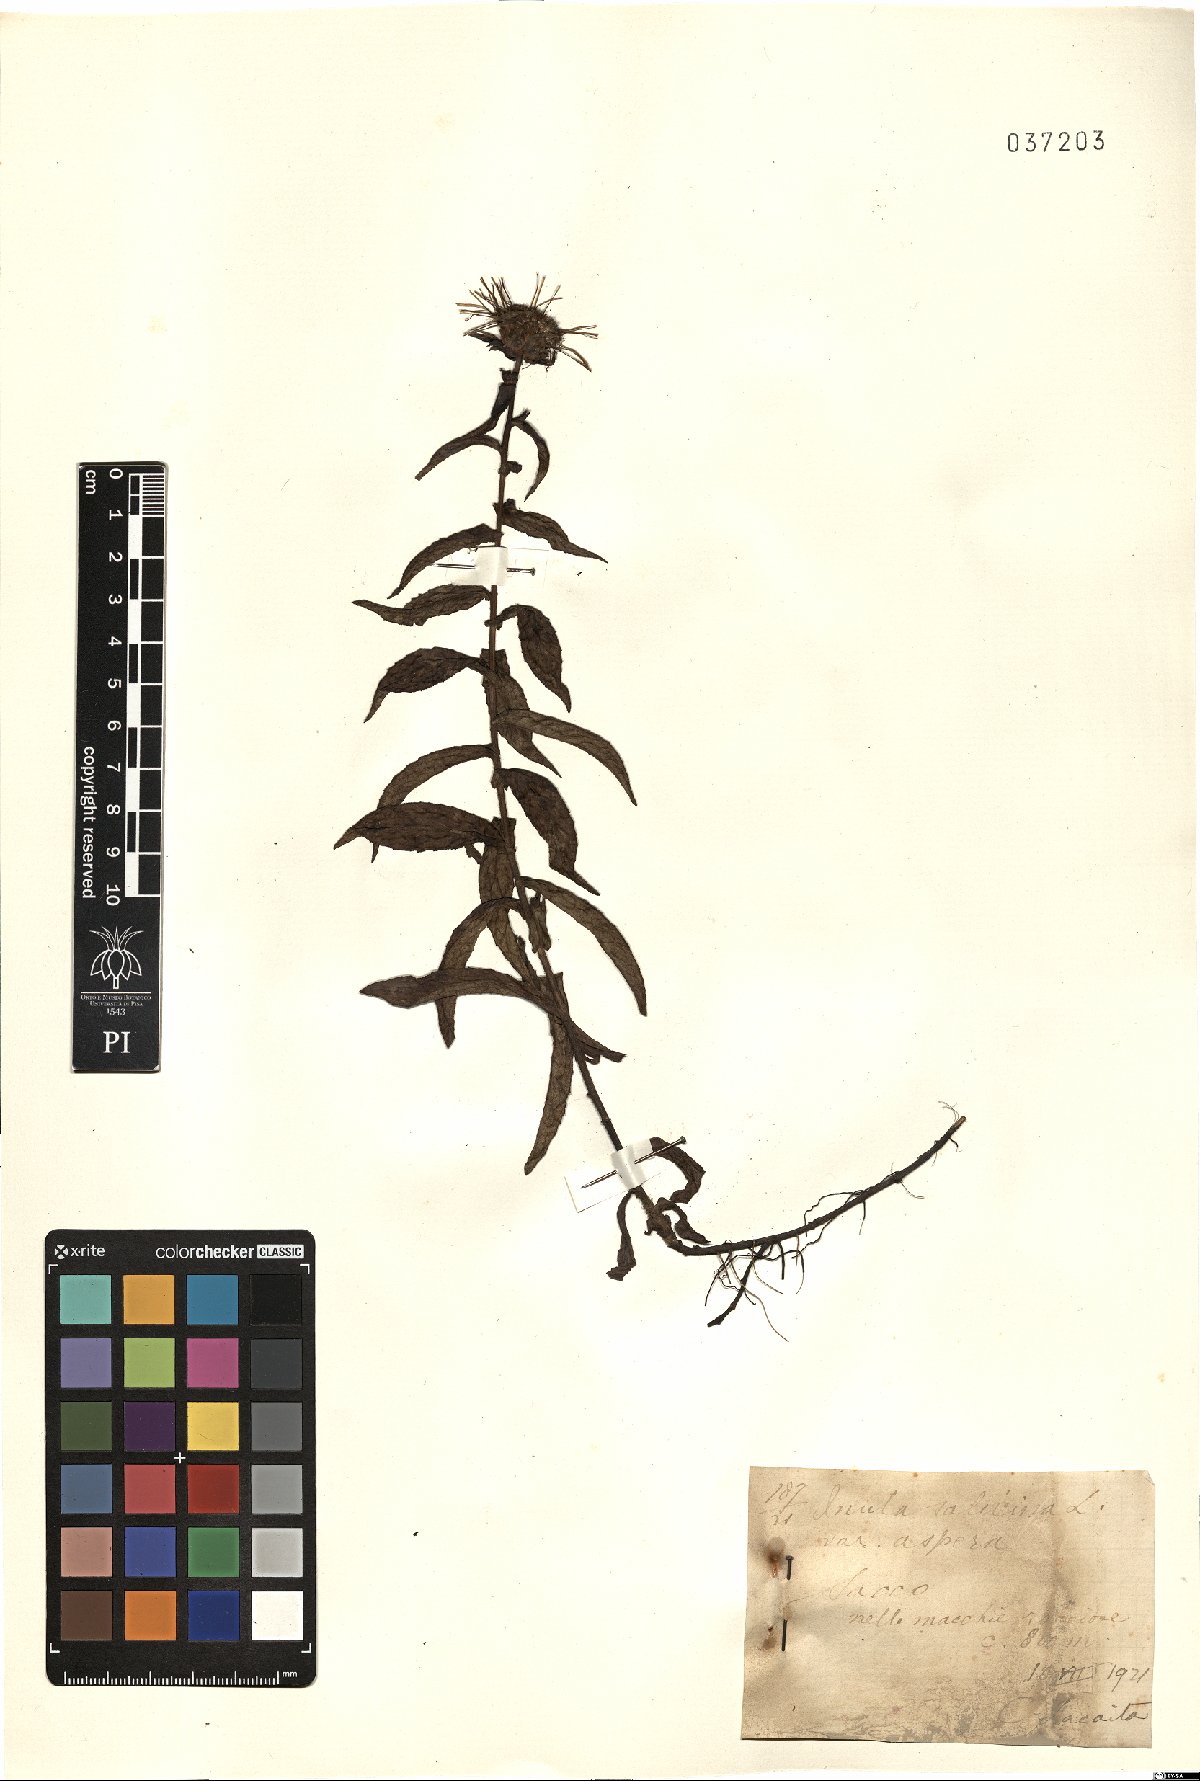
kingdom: Plantae
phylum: Tracheophyta
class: Magnoliopsida
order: Asterales
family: Asteraceae
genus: Pentanema
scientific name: Pentanema asperum
